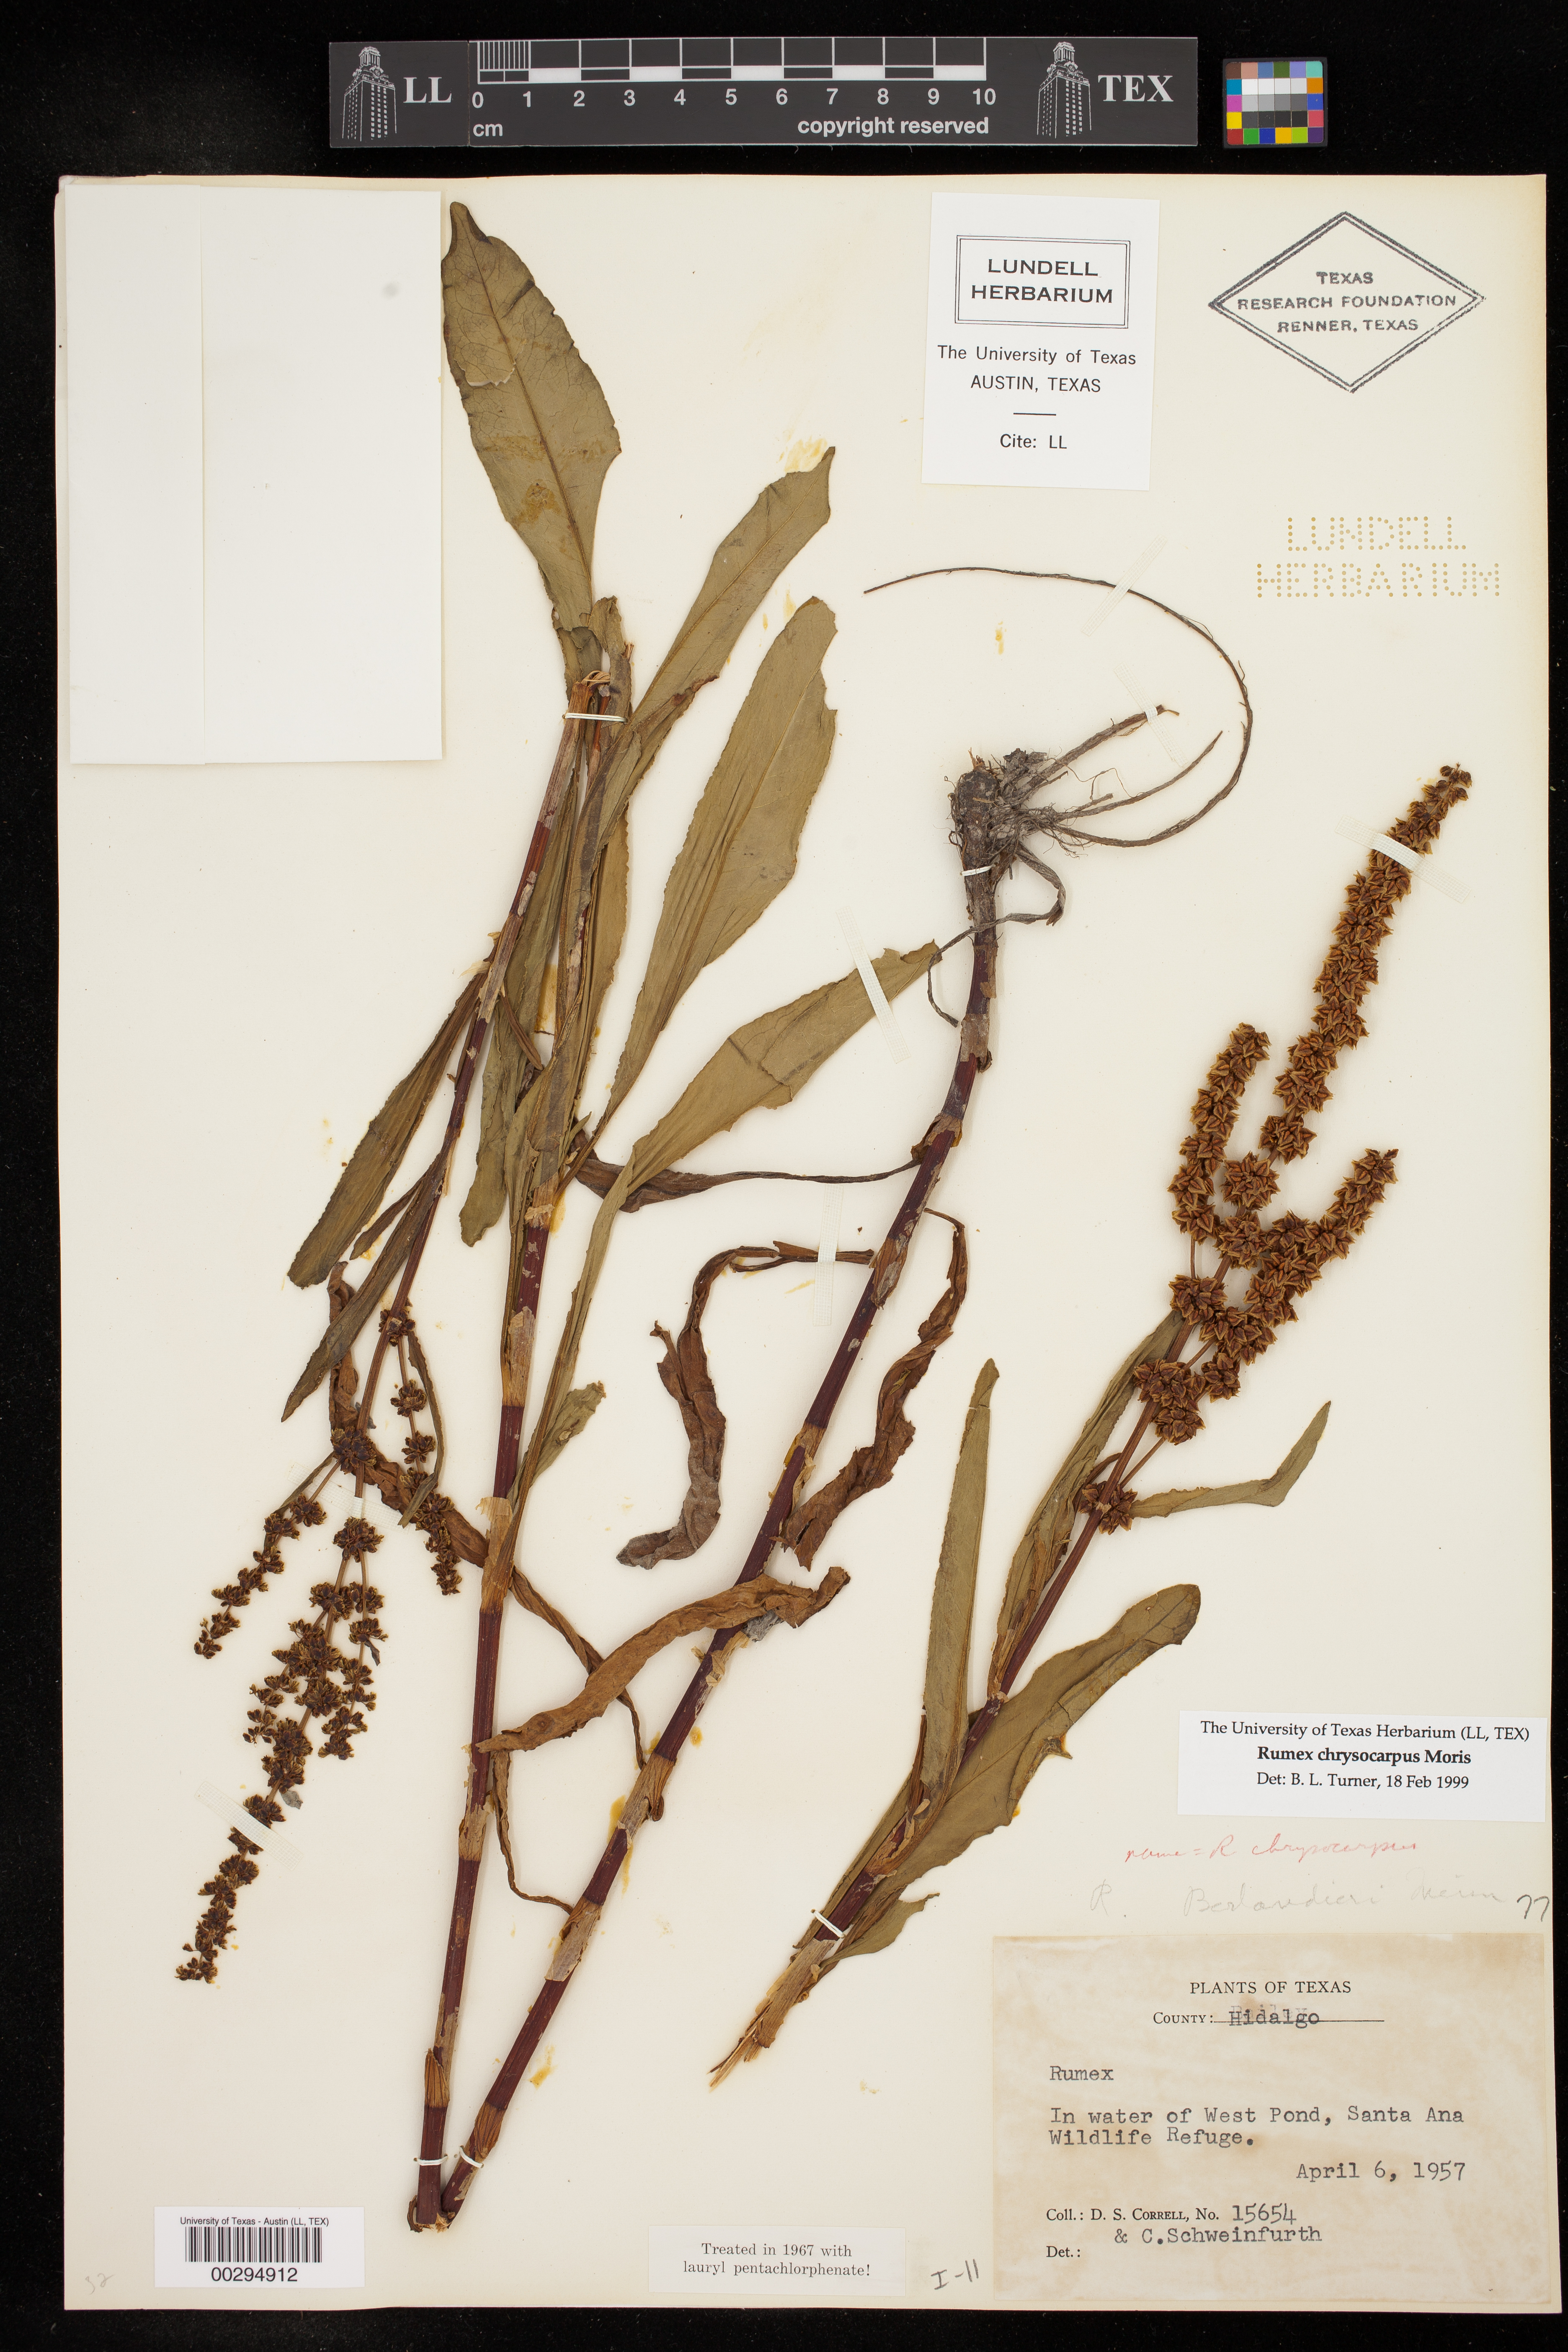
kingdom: Plantae
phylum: Tracheophyta
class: Magnoliopsida
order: Caryophyllales
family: Polygonaceae
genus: Rumex
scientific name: Rumex chrysocarpus
